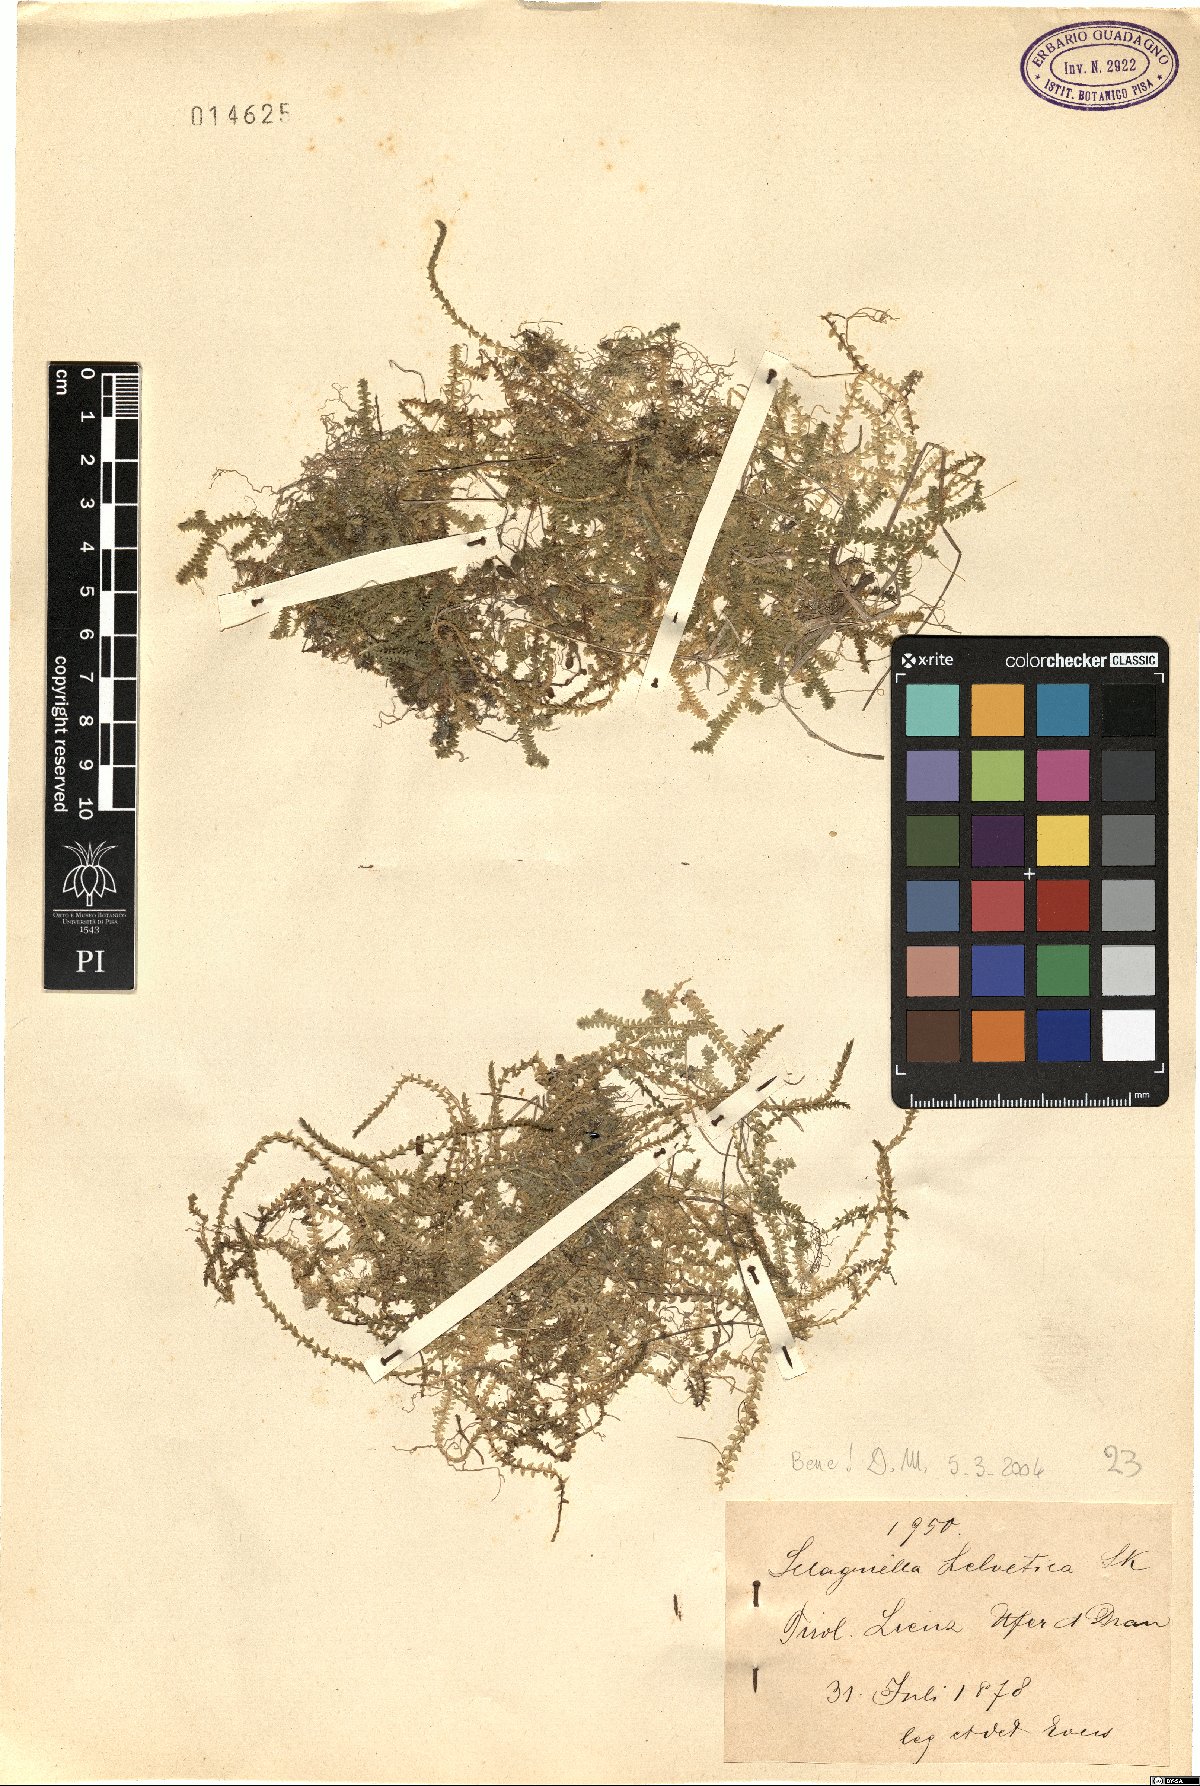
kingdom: Plantae
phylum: Tracheophyta
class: Lycopodiopsida
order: Selaginellales
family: Selaginellaceae
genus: Selaginella
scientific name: Selaginella helvetica
